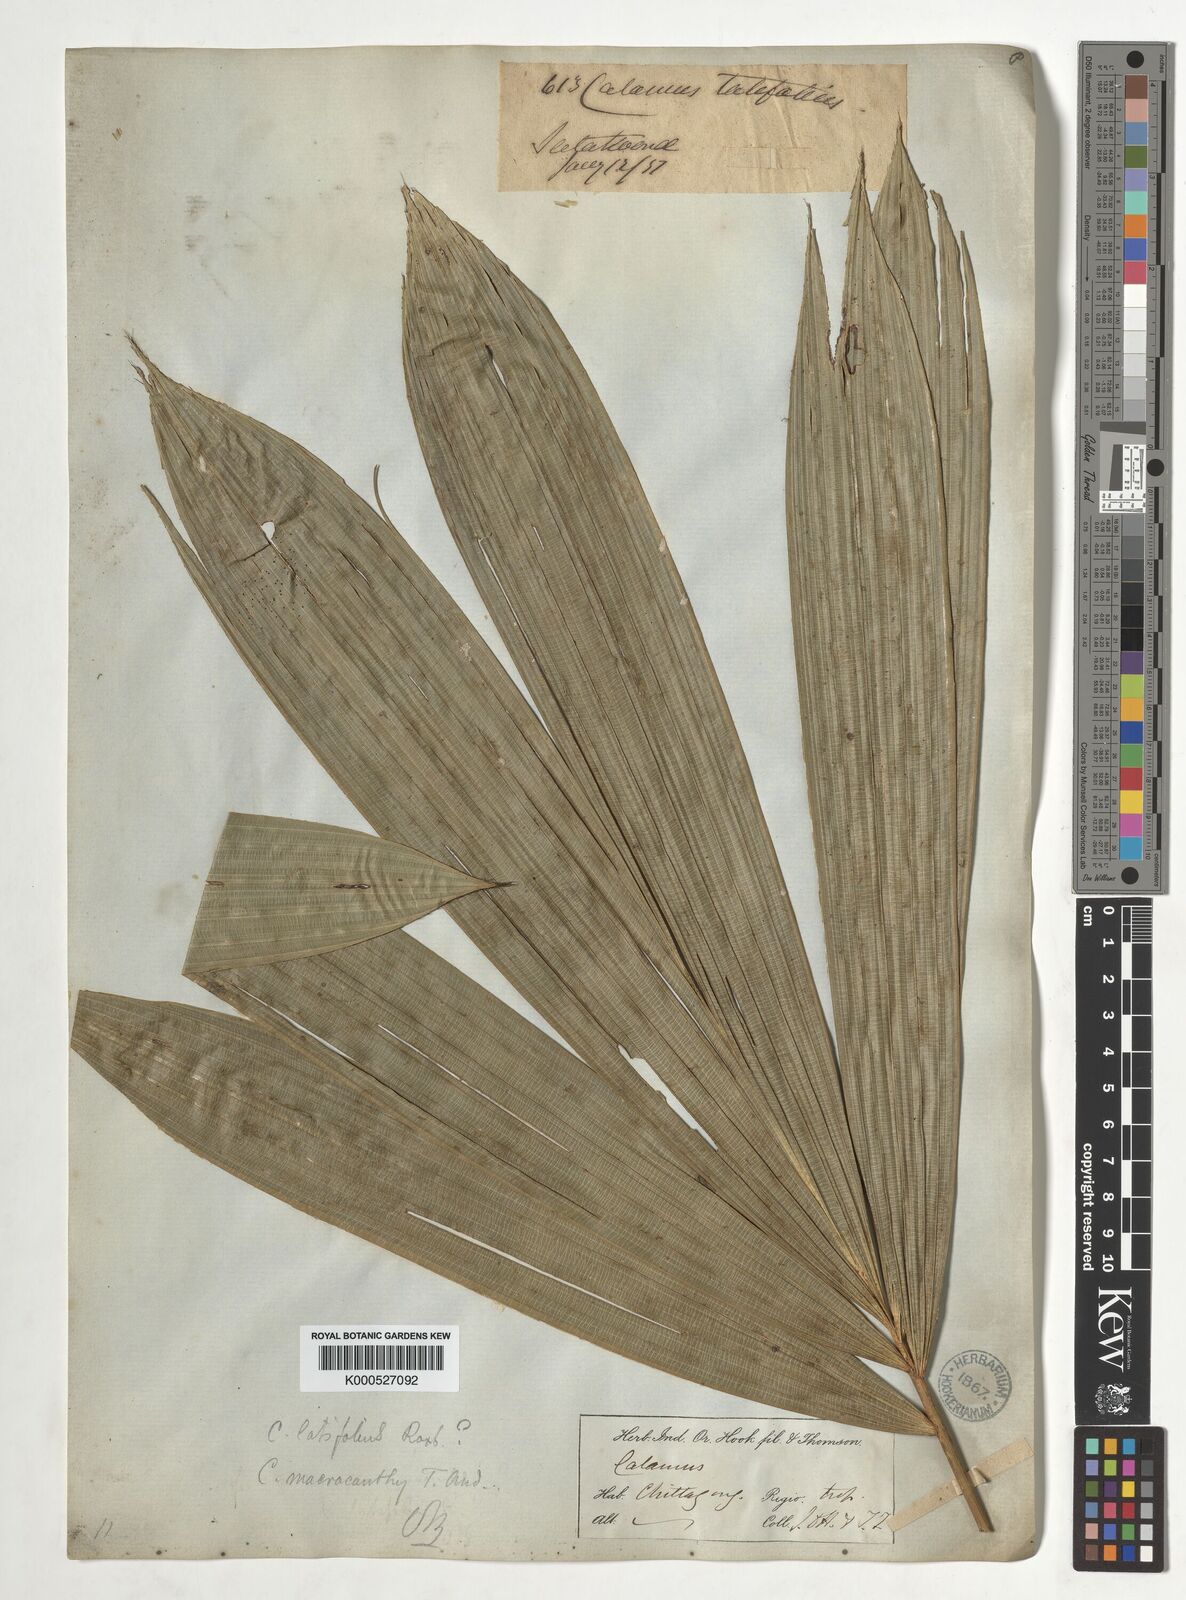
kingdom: Plantae
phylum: Tracheophyta
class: Liliopsida
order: Arecales
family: Arecaceae
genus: Calamus
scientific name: Calamus latifolius
